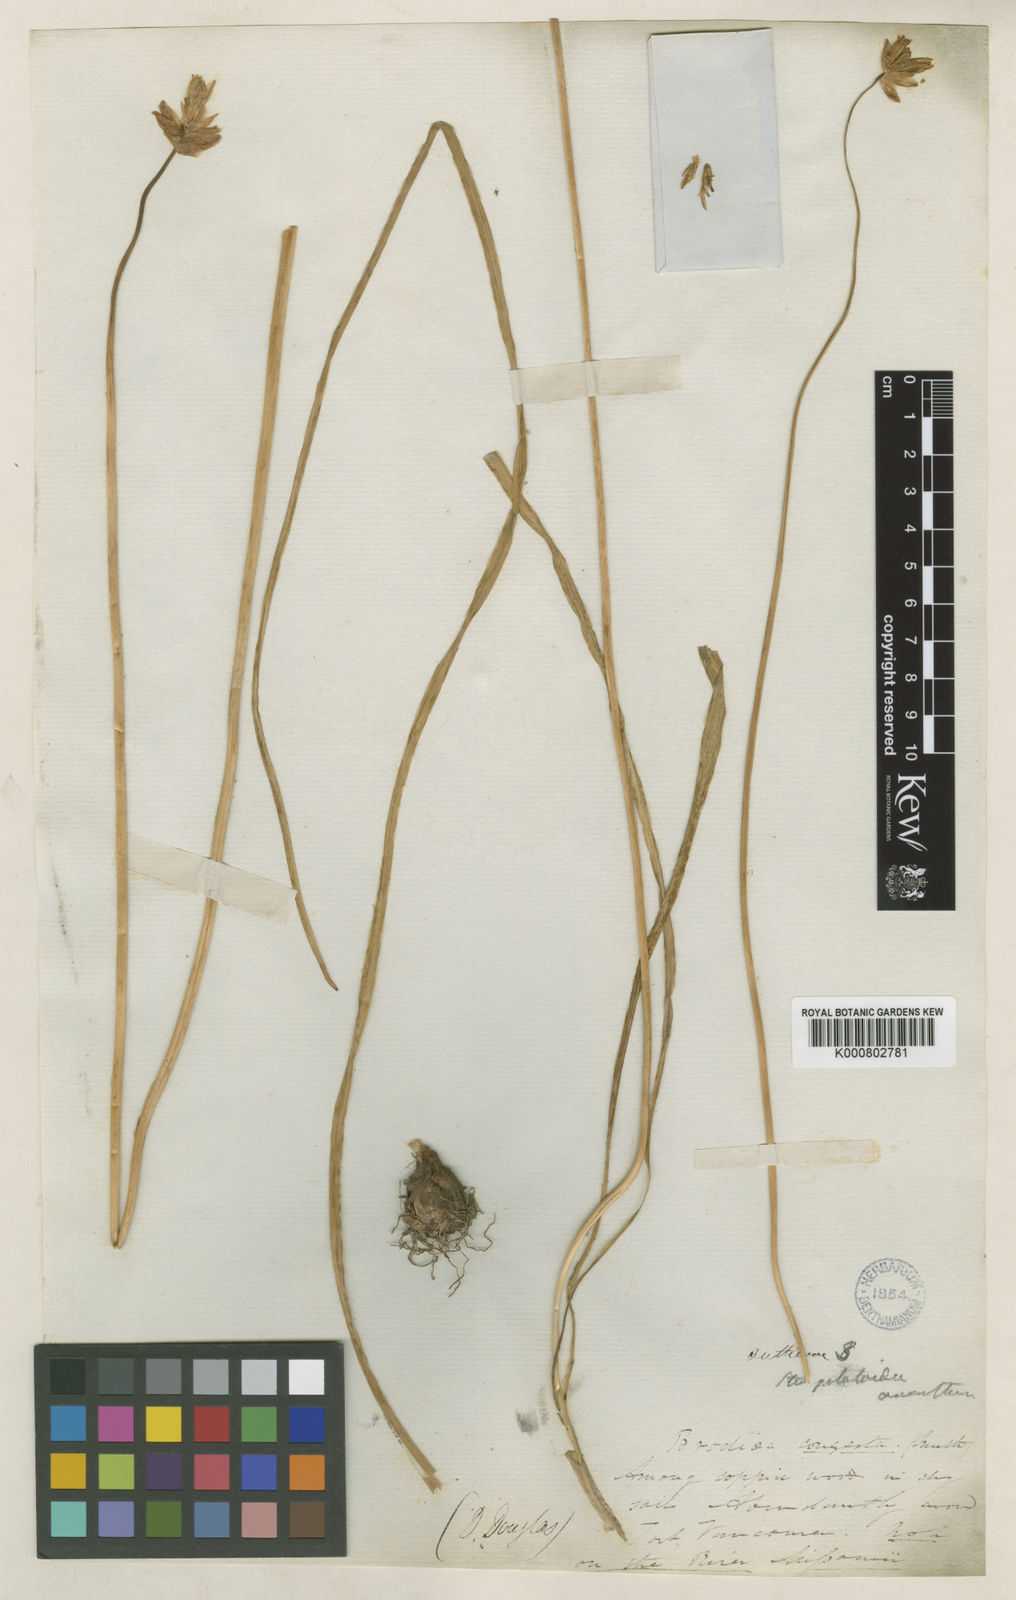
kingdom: Plantae
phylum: Tracheophyta
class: Liliopsida
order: Asparagales
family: Asparagaceae
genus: Dichelostemma
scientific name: Dichelostemma congestum
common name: Fork-tooth ookow
